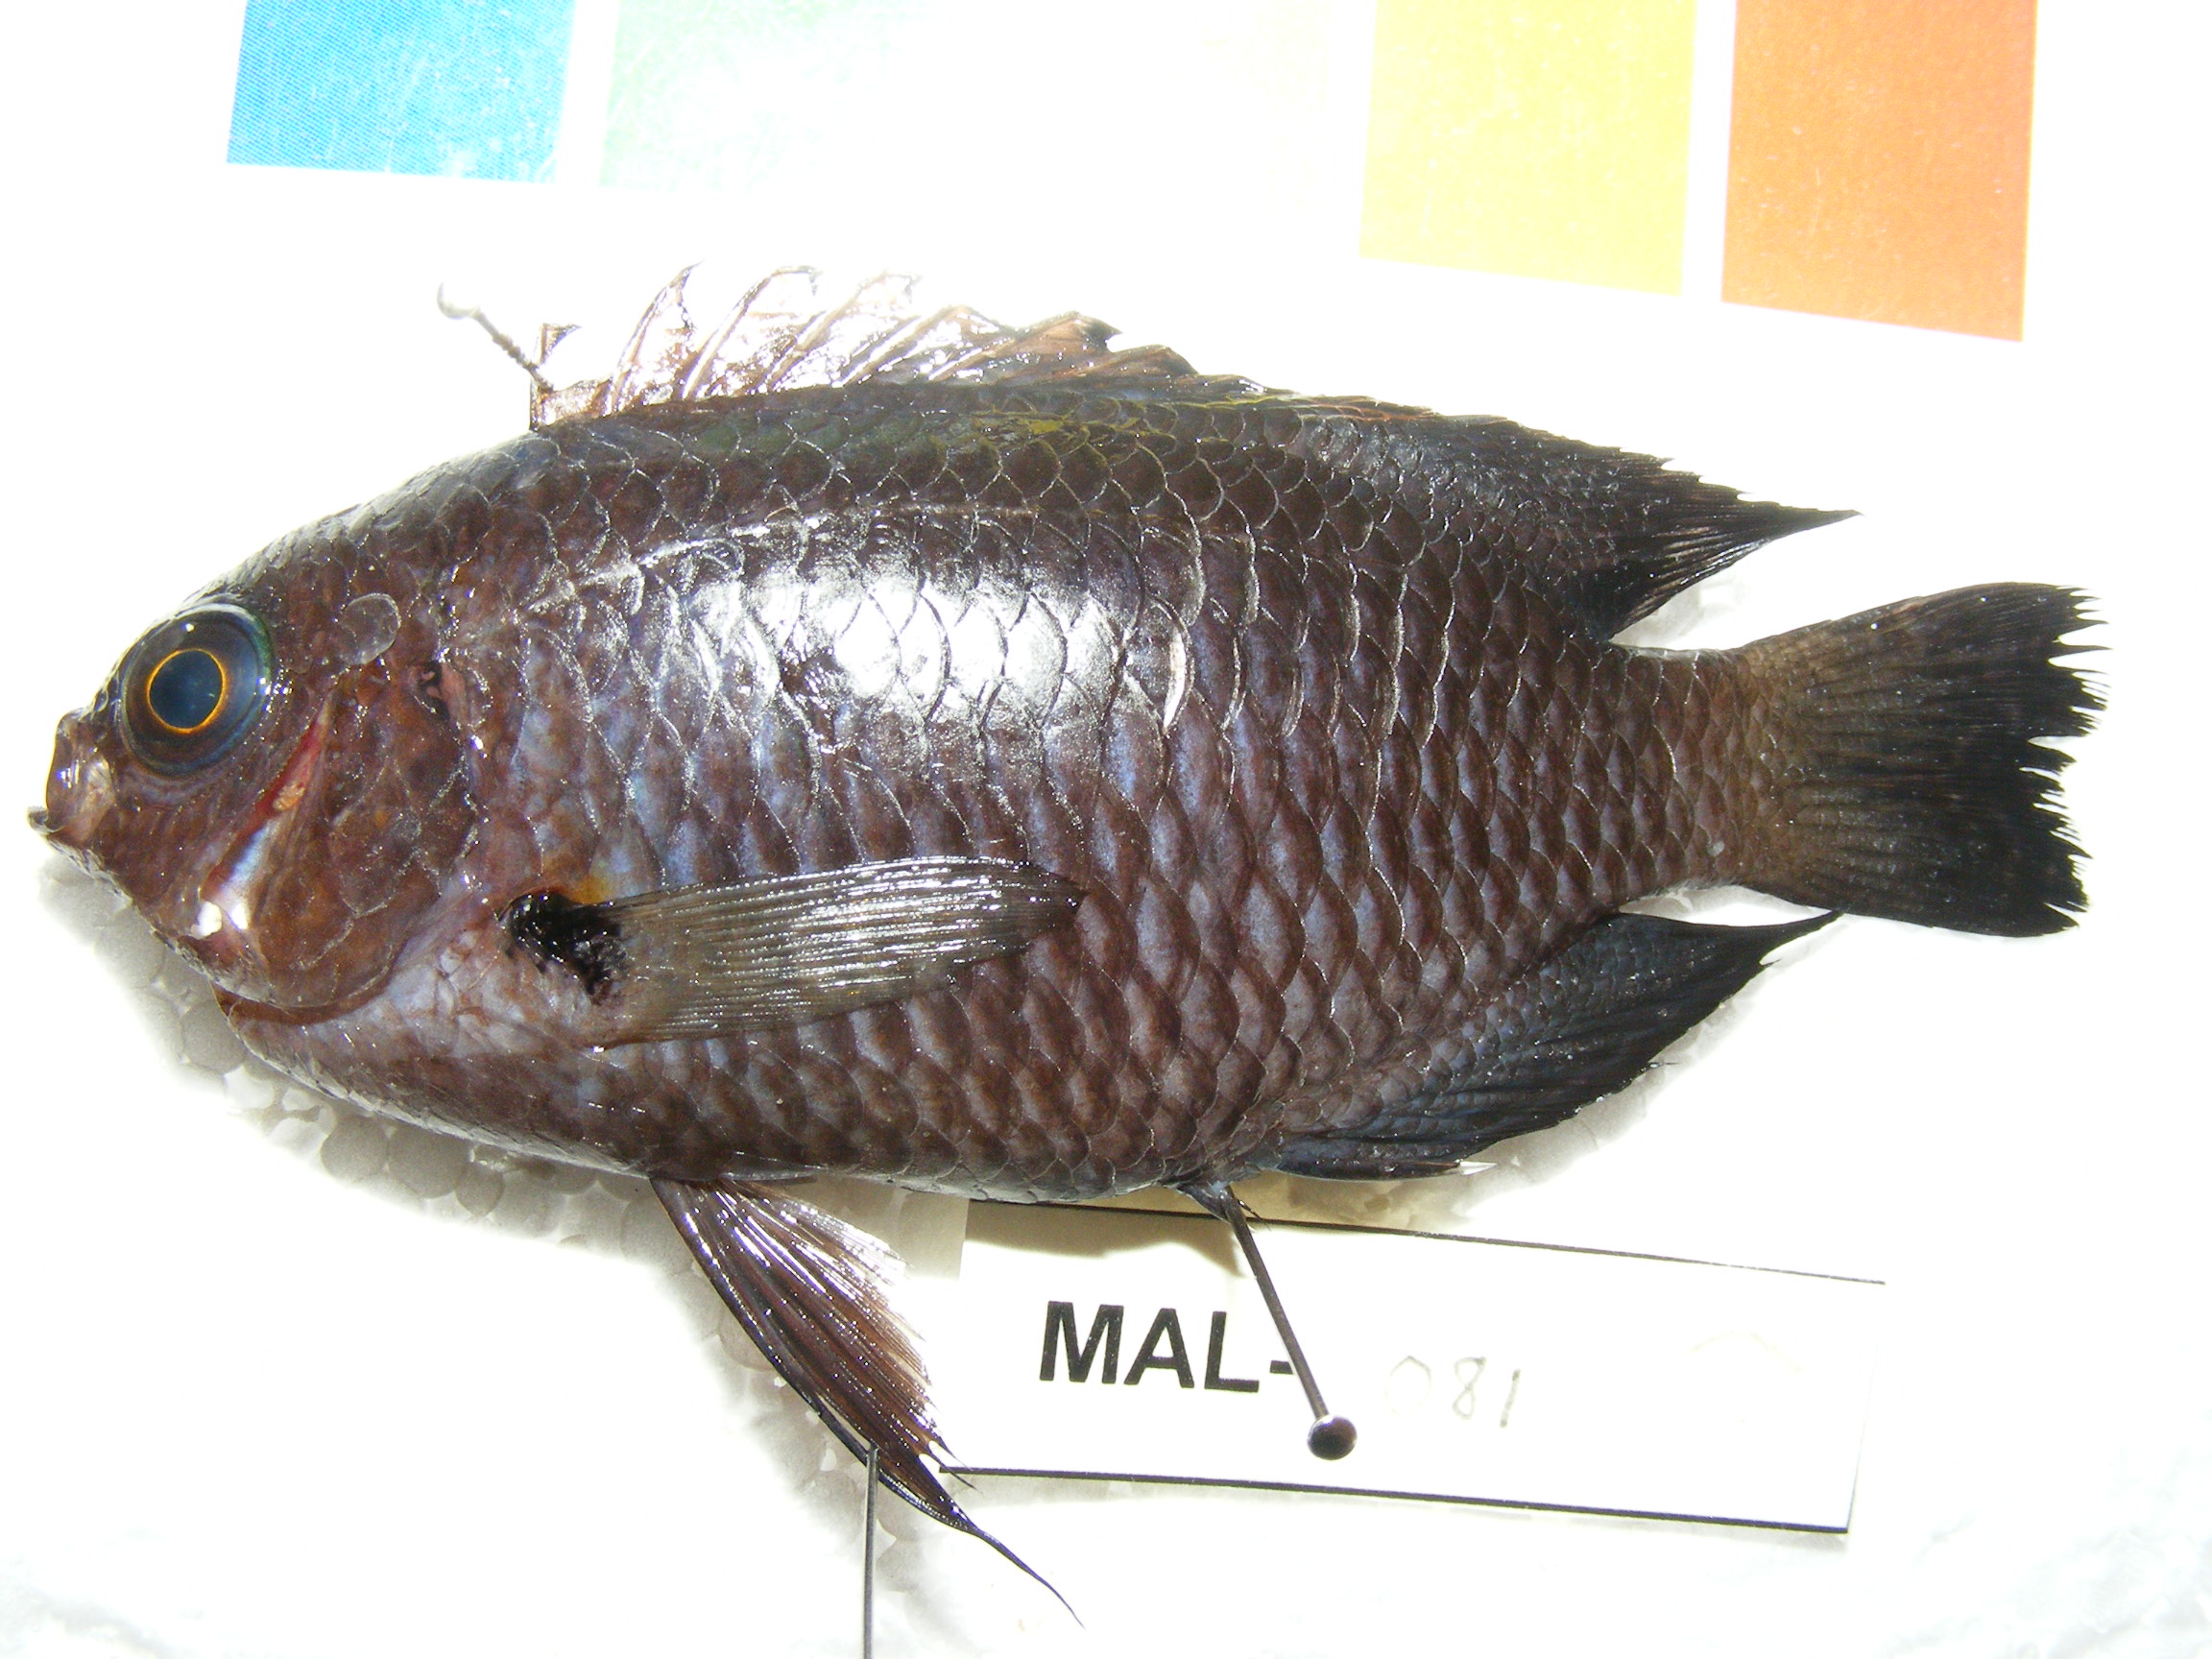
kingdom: Animalia
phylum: Chordata
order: Perciformes
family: Pomacentridae
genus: Stegastes
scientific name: Stegastes fasciolatus
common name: Pacific gregory
